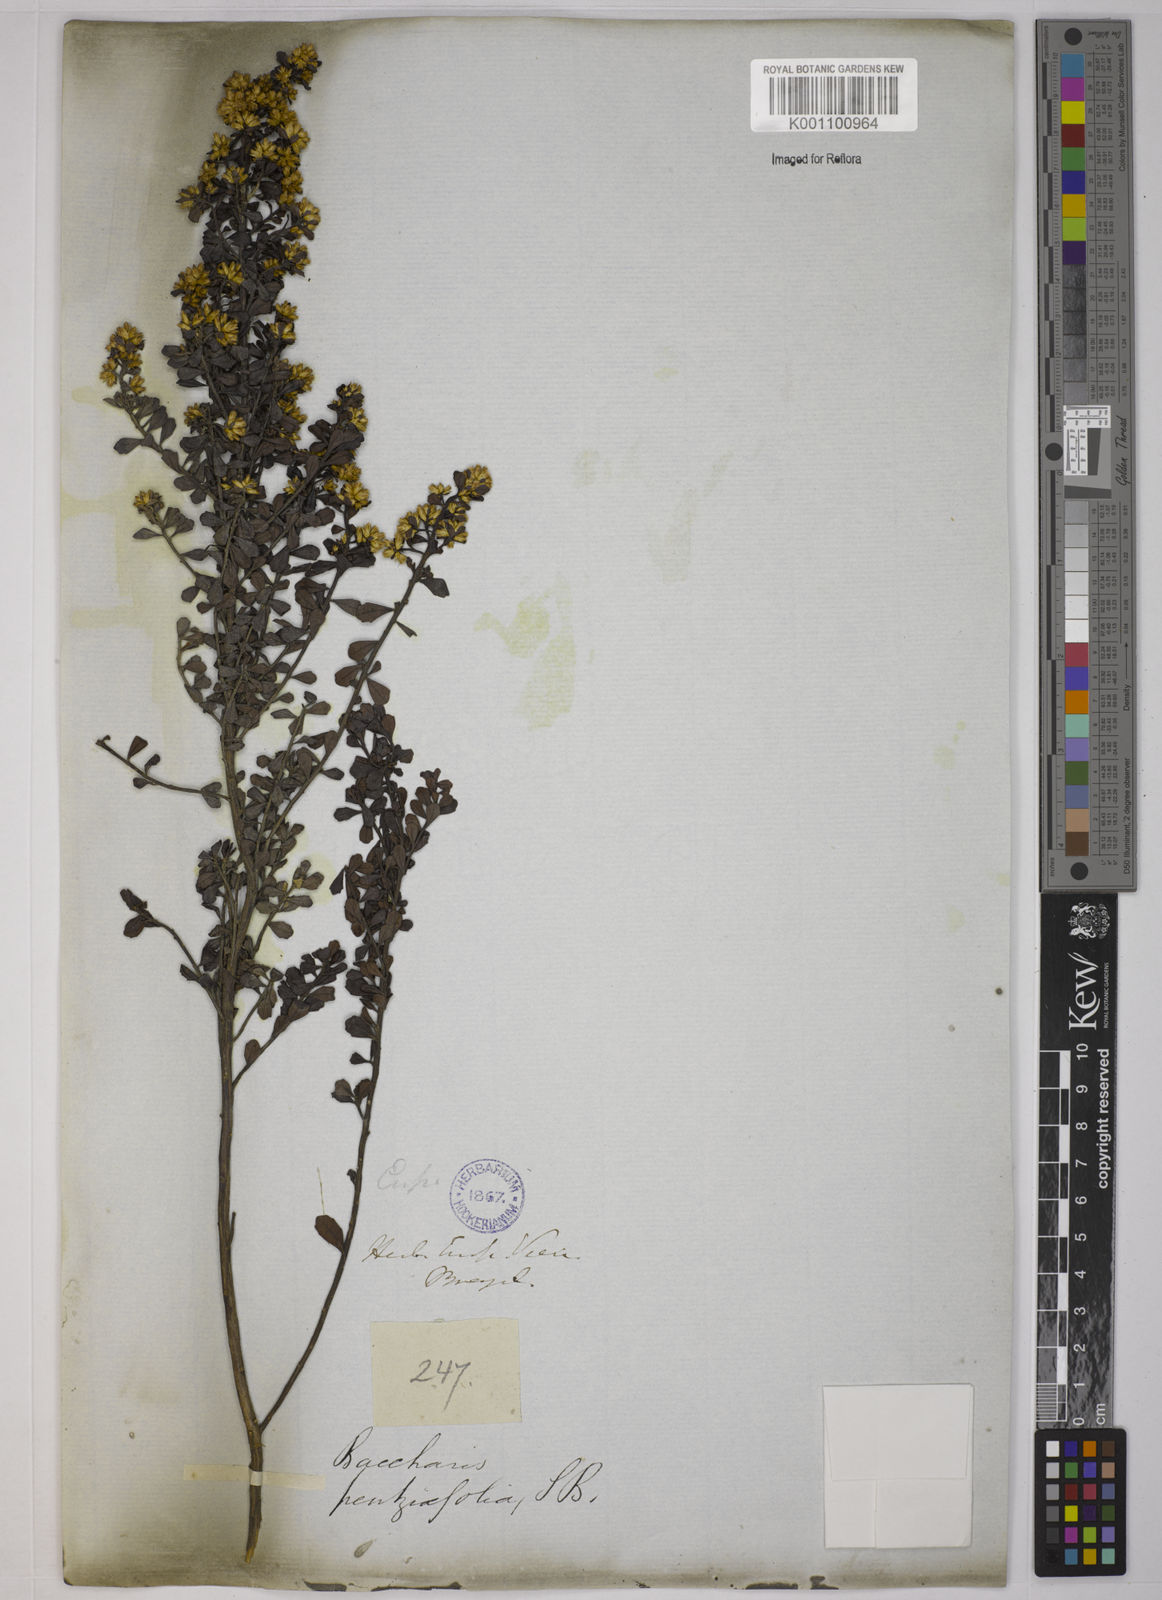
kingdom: Plantae
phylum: Tracheophyta
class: Magnoliopsida
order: Asterales
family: Asteraceae
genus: Baccharis
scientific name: Baccharis pentziifolia
